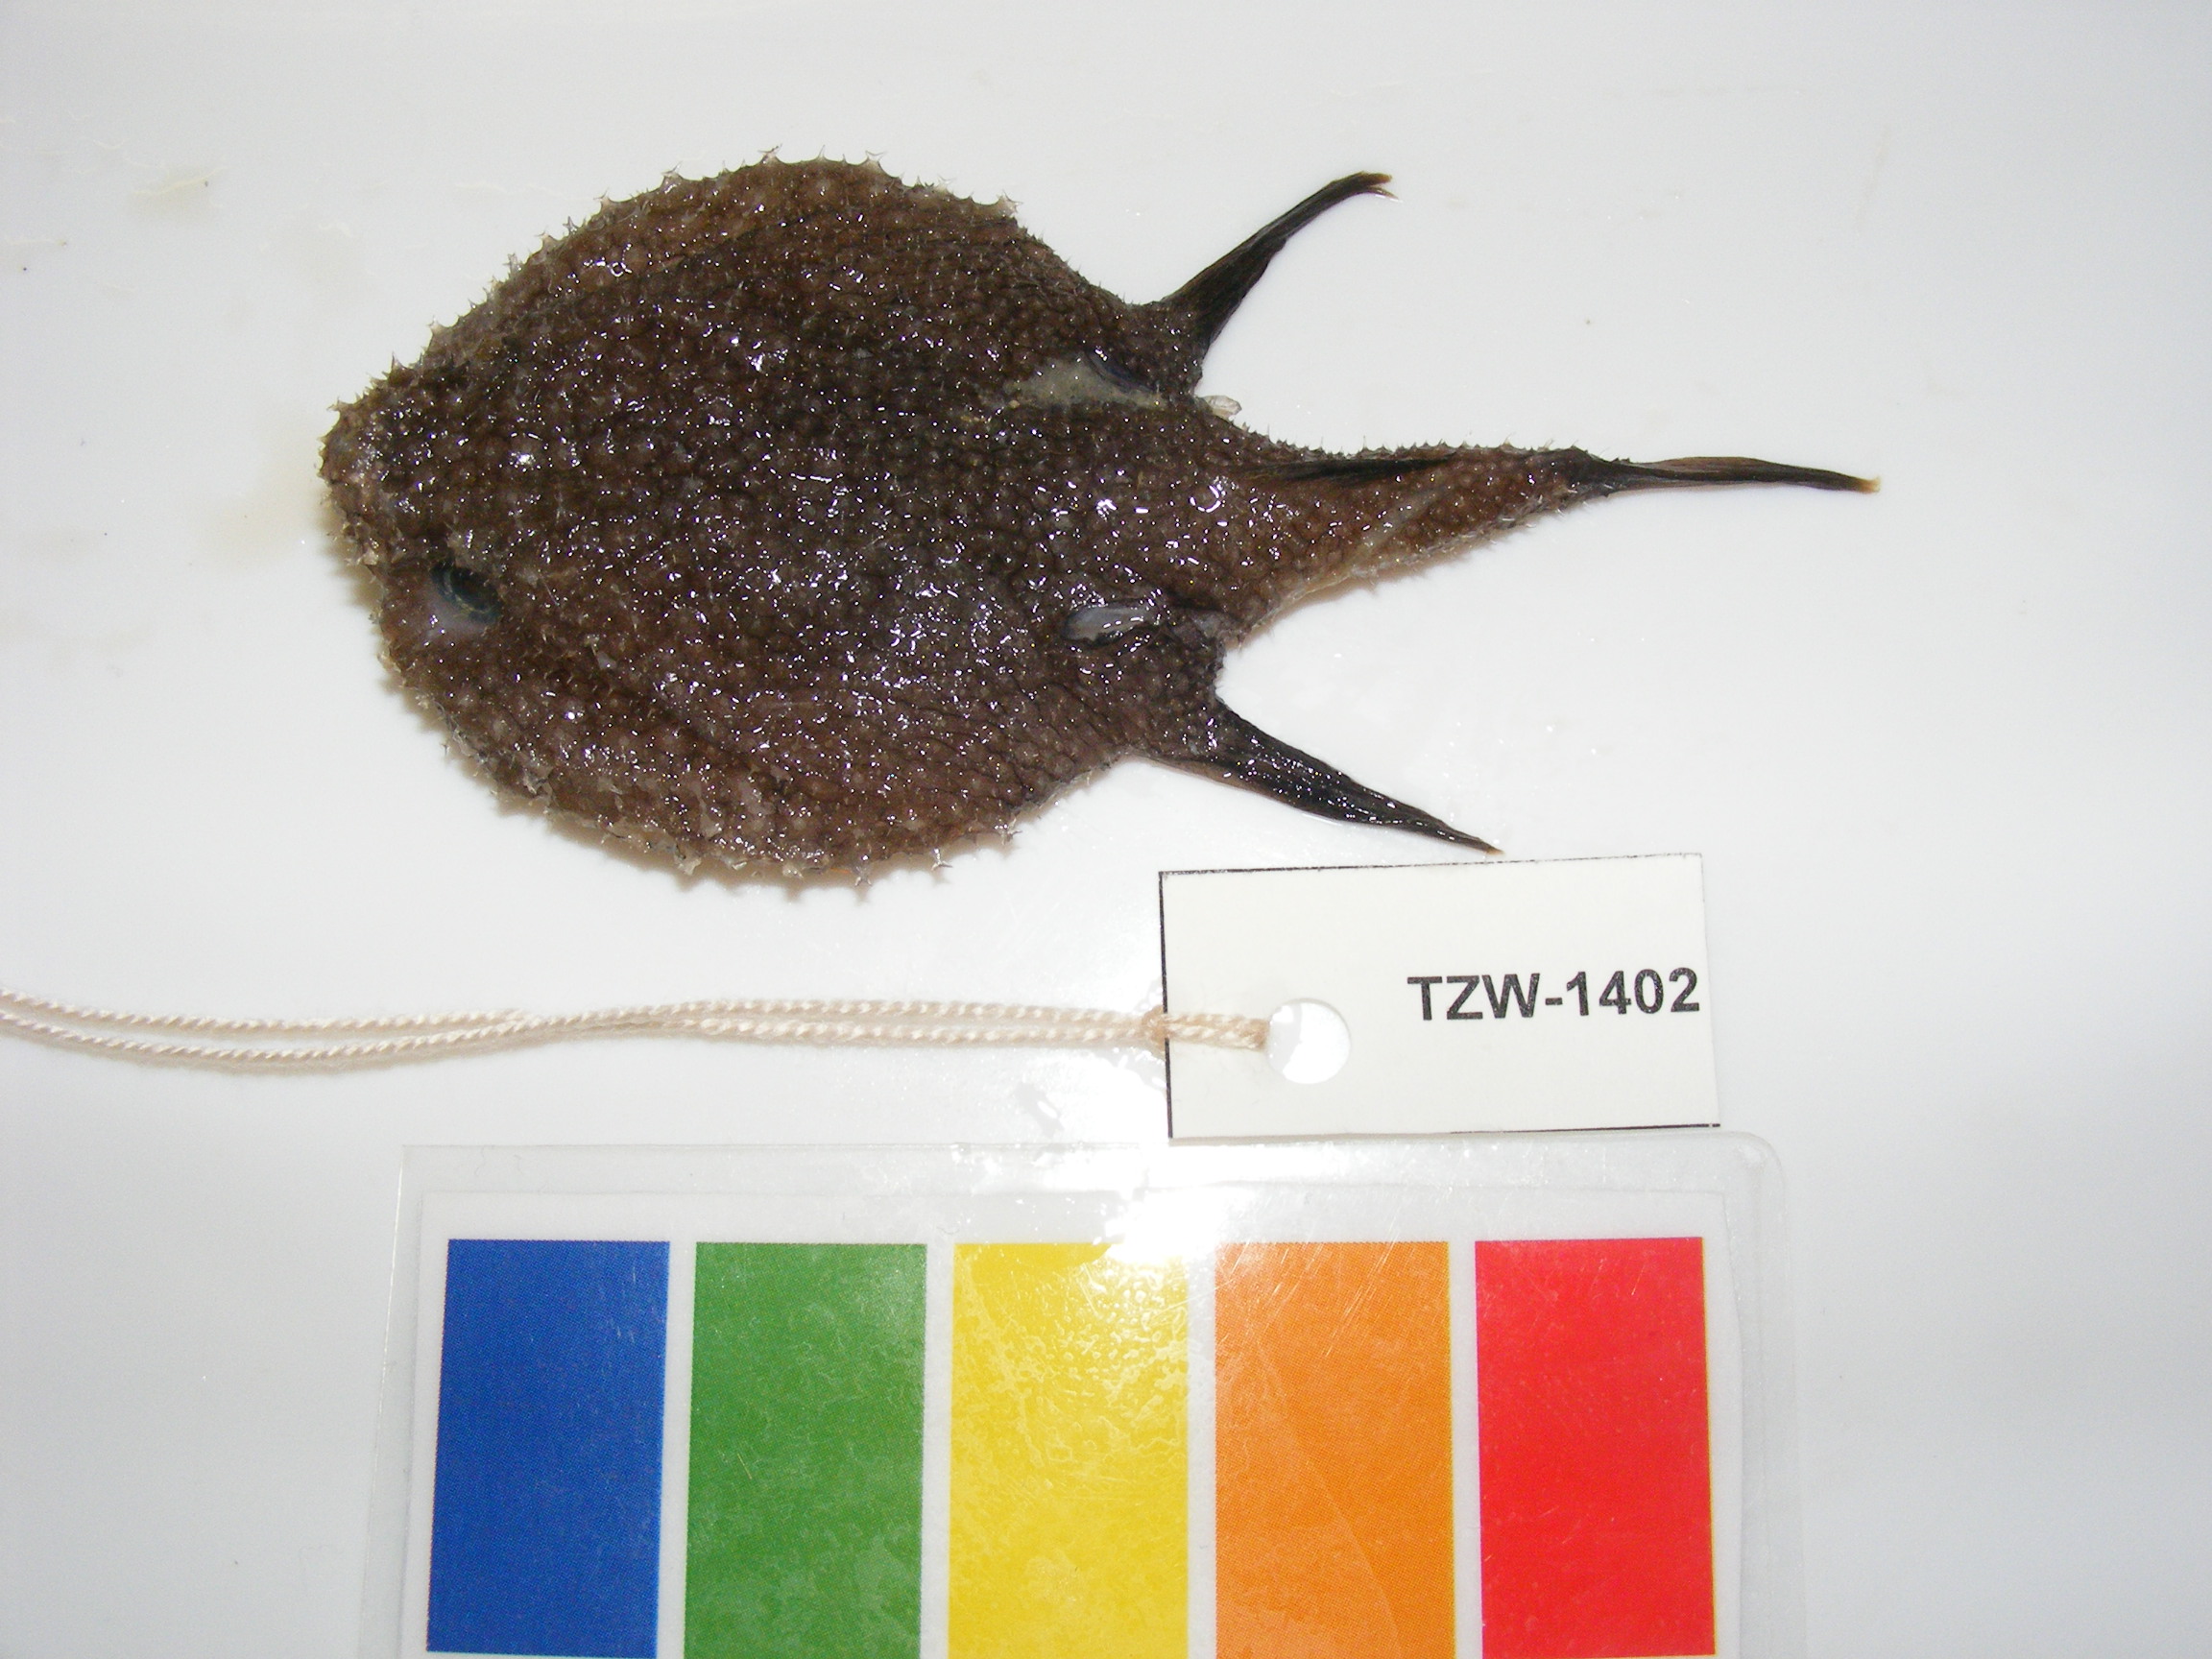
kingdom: Animalia
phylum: Chordata
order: Lophiiformes
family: Ogcocephalidae
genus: Halieutopsis
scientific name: Halieutopsis stellifera
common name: Starry seabat
